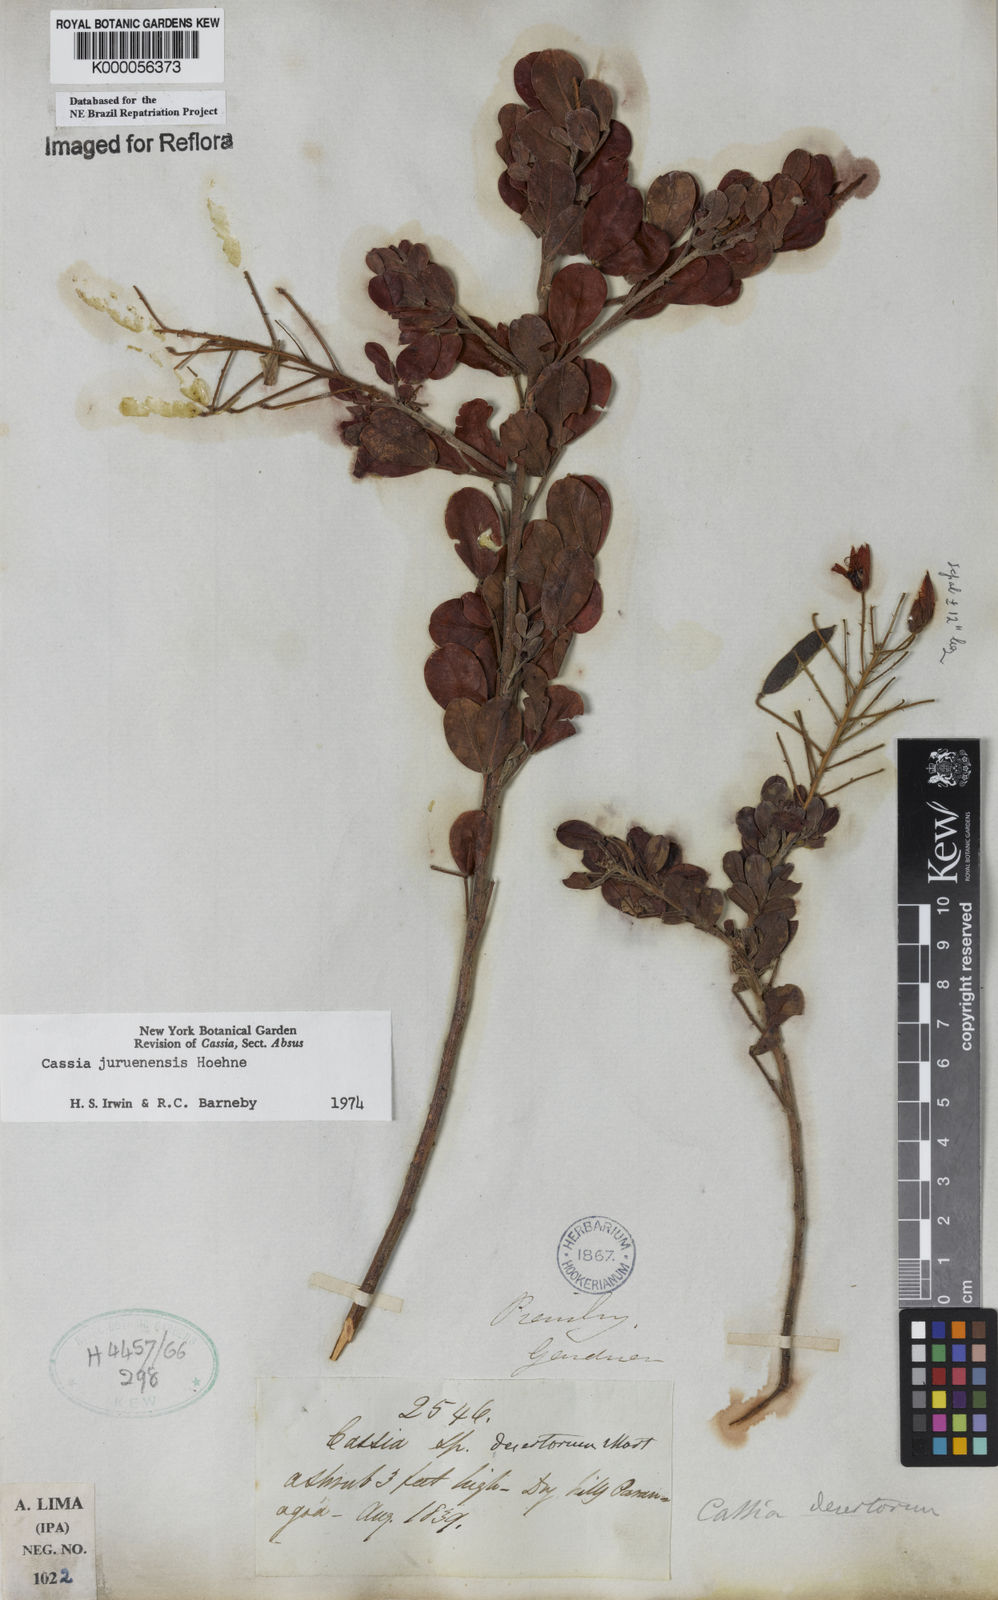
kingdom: Plantae
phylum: Tracheophyta
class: Magnoliopsida
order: Fabales
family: Fabaceae
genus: Chamaecrista
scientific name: Chamaecrista juruenensis
